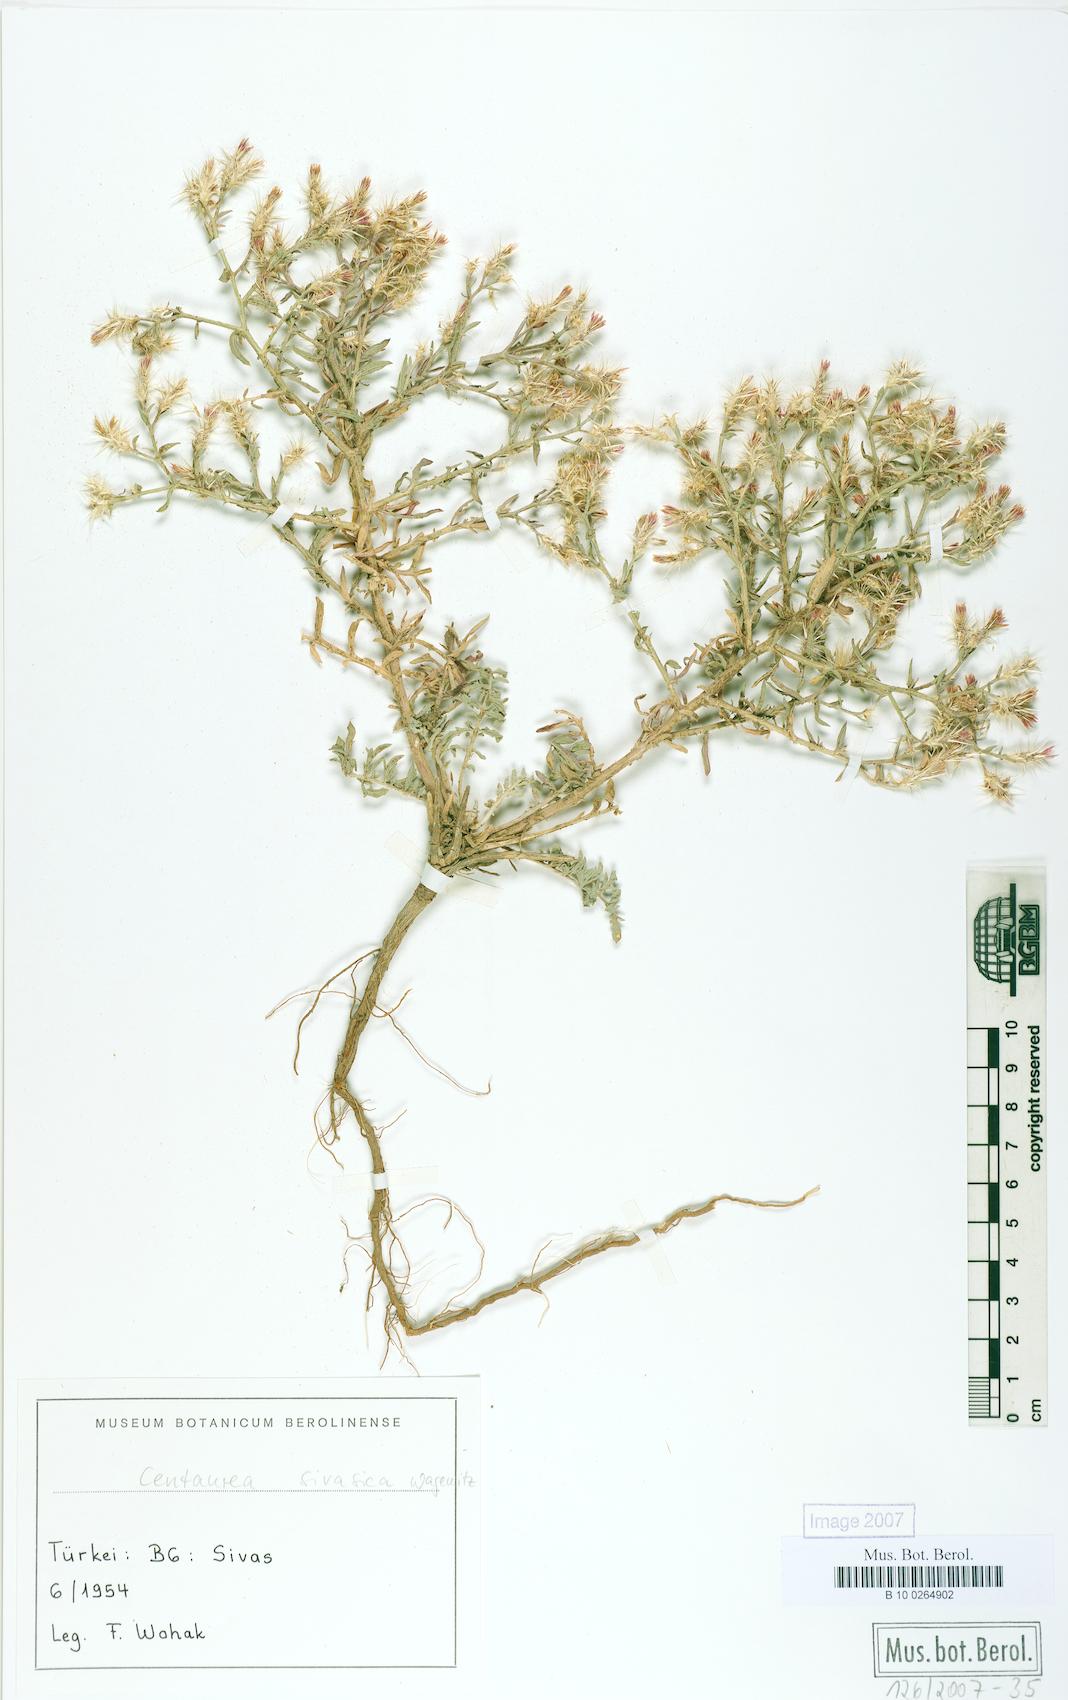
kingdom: Plantae
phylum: Tracheophyta
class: Magnoliopsida
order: Asterales
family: Asteraceae
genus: Centaurea
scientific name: Centaurea sivasica
